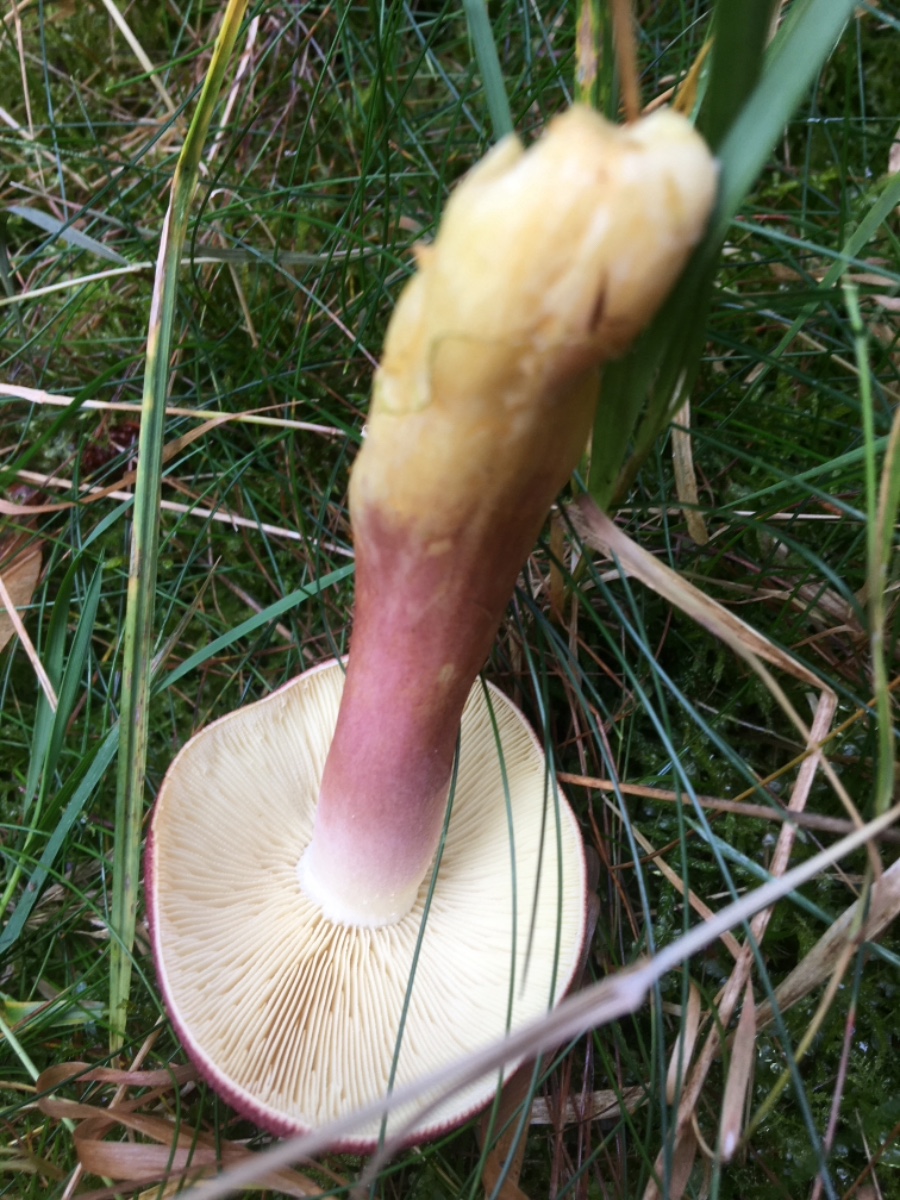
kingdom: Fungi
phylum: Basidiomycota
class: Agaricomycetes
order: Agaricales
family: Tricholomataceae
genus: Tricholomopsis
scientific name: Tricholomopsis rutilans
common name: purpur-væbnerhat
